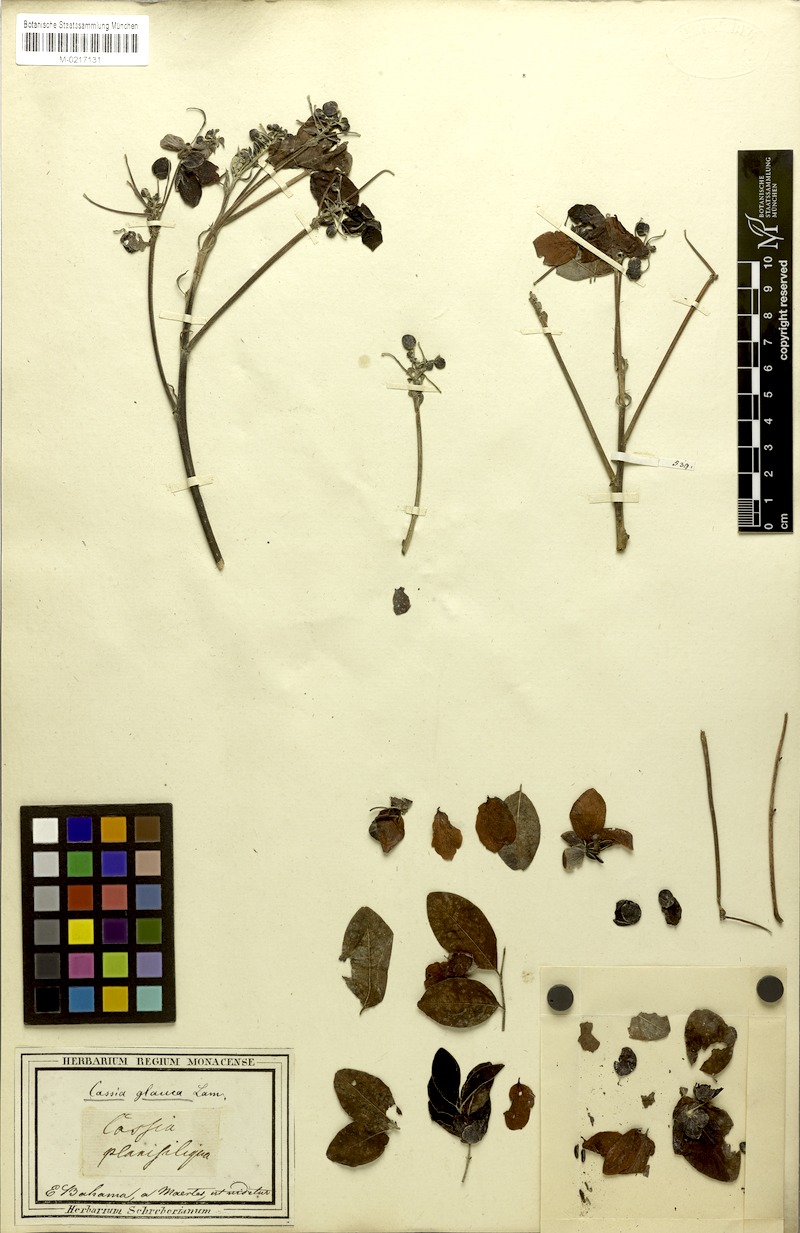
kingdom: Plantae
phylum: Tracheophyta
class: Magnoliopsida
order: Fabales
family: Fabaceae
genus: Senna
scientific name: Senna sulfurea
